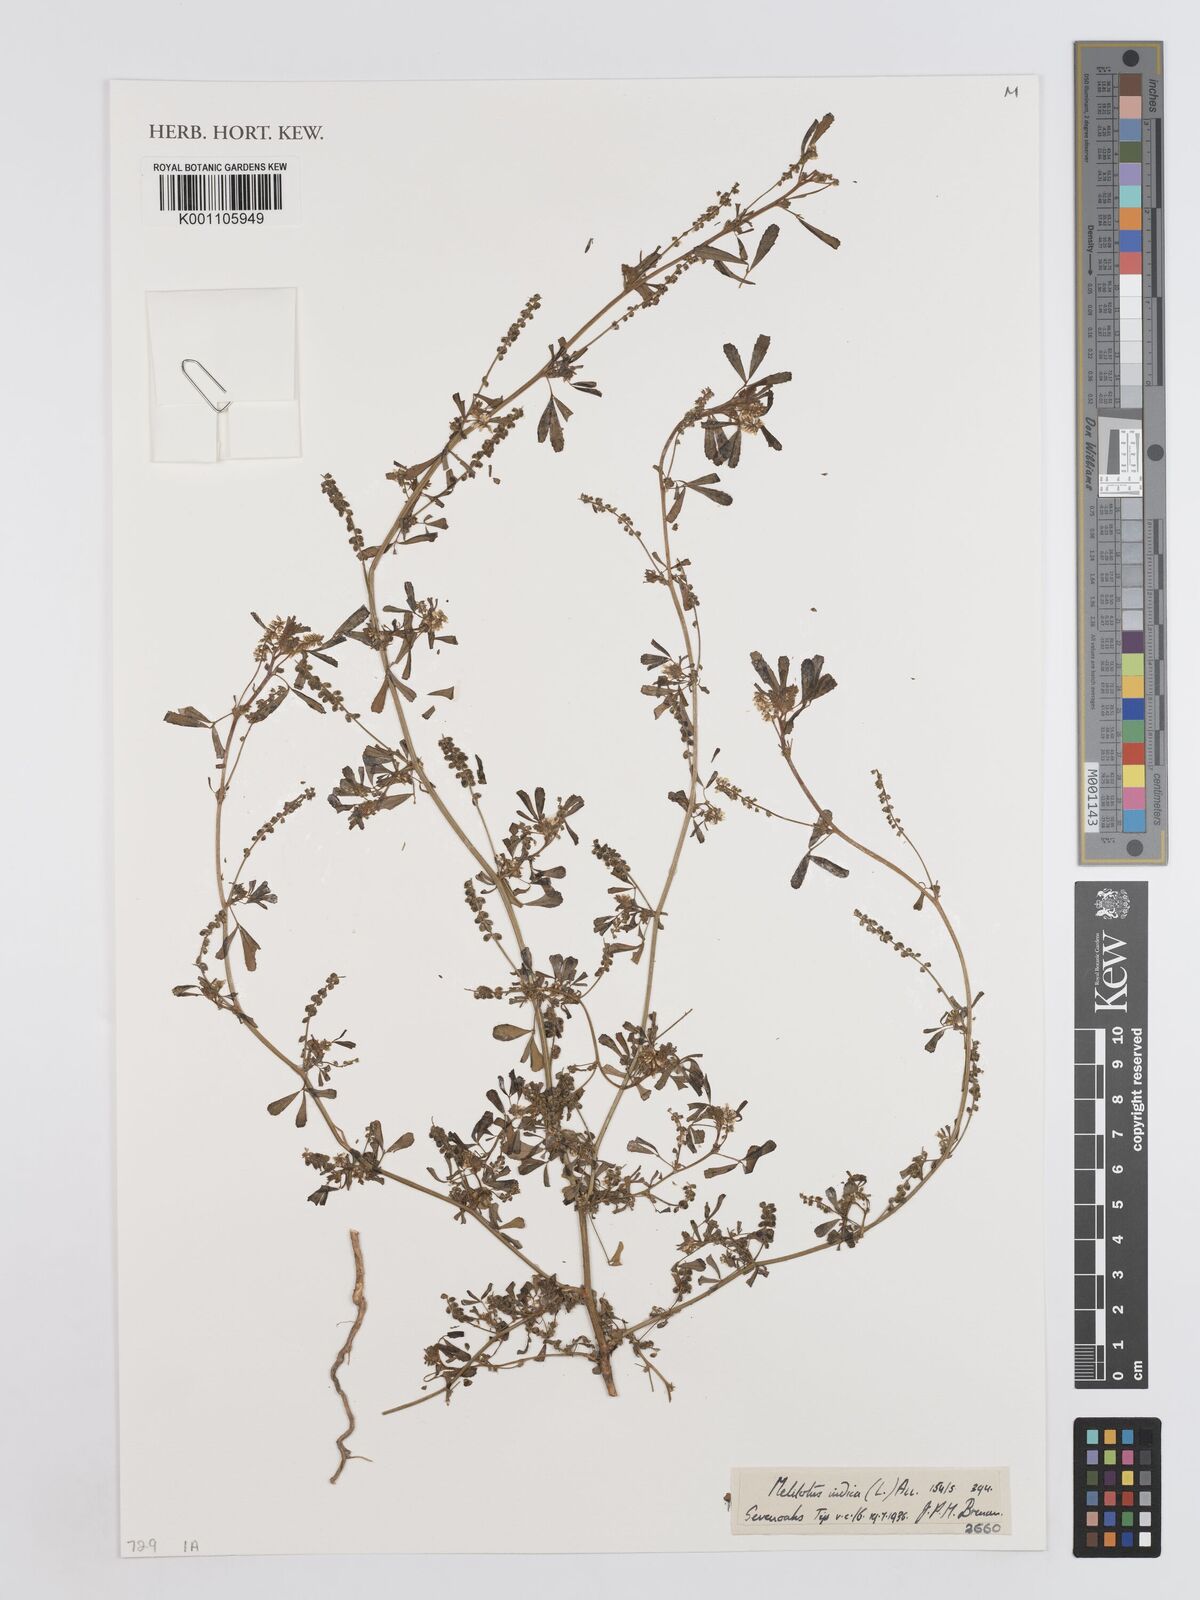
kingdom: Plantae
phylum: Tracheophyta
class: Magnoliopsida
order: Fabales
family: Fabaceae
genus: Melilotus
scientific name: Melilotus indicus
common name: Small melilot
